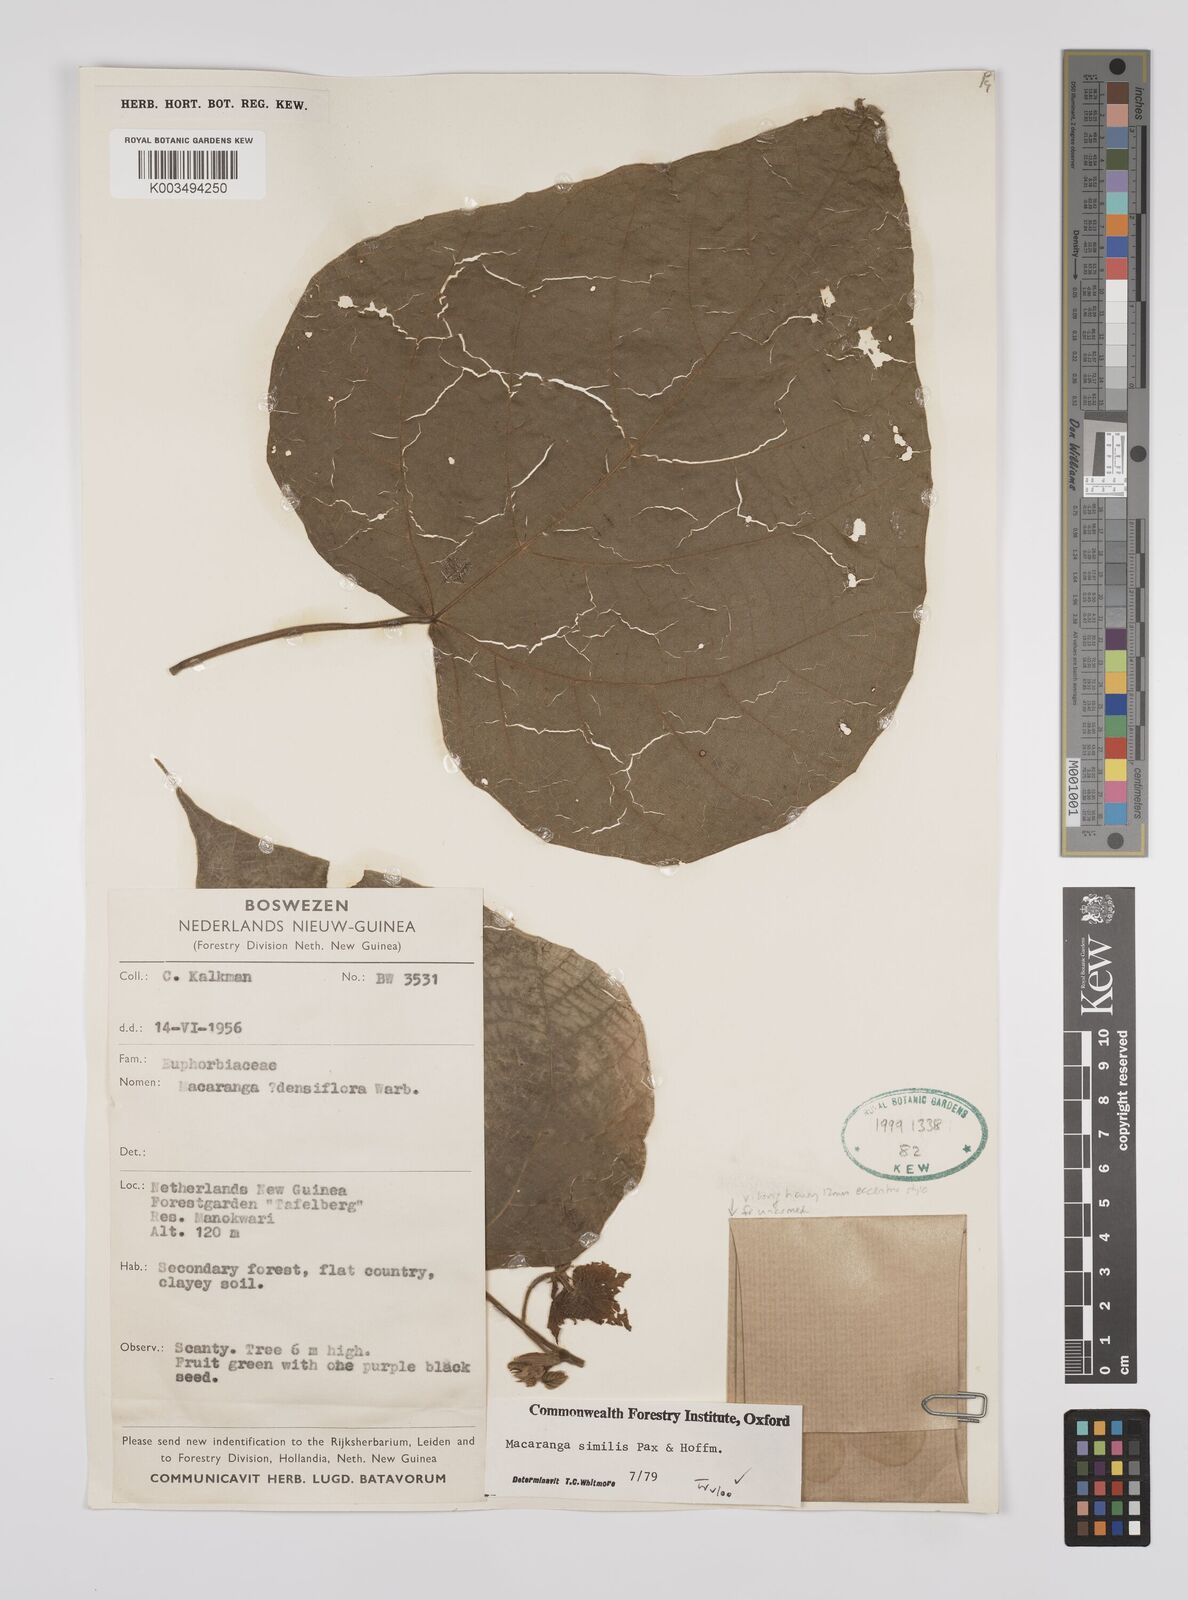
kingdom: Plantae
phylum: Tracheophyta
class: Magnoliopsida
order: Malpighiales
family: Euphorbiaceae
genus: Macaranga
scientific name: Macaranga similis
